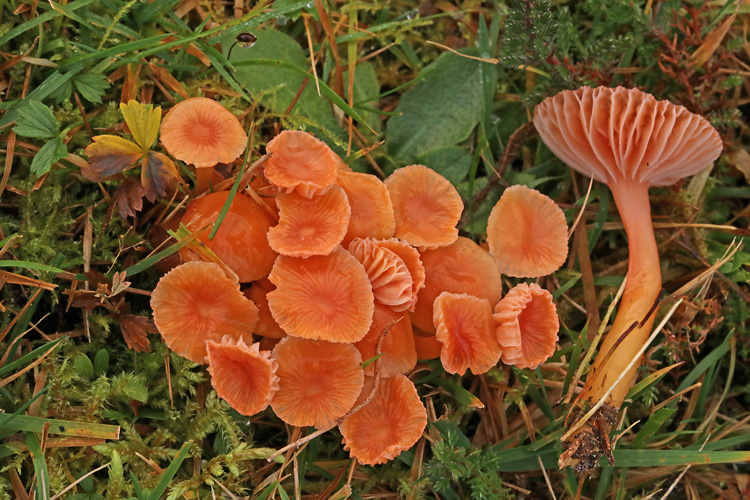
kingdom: Fungi
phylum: Basidiomycota
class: Agaricomycetes
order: Agaricales
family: Hygrophoraceae
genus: Gliophorus
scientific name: Gliophorus laetus
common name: brusk-vokshat
